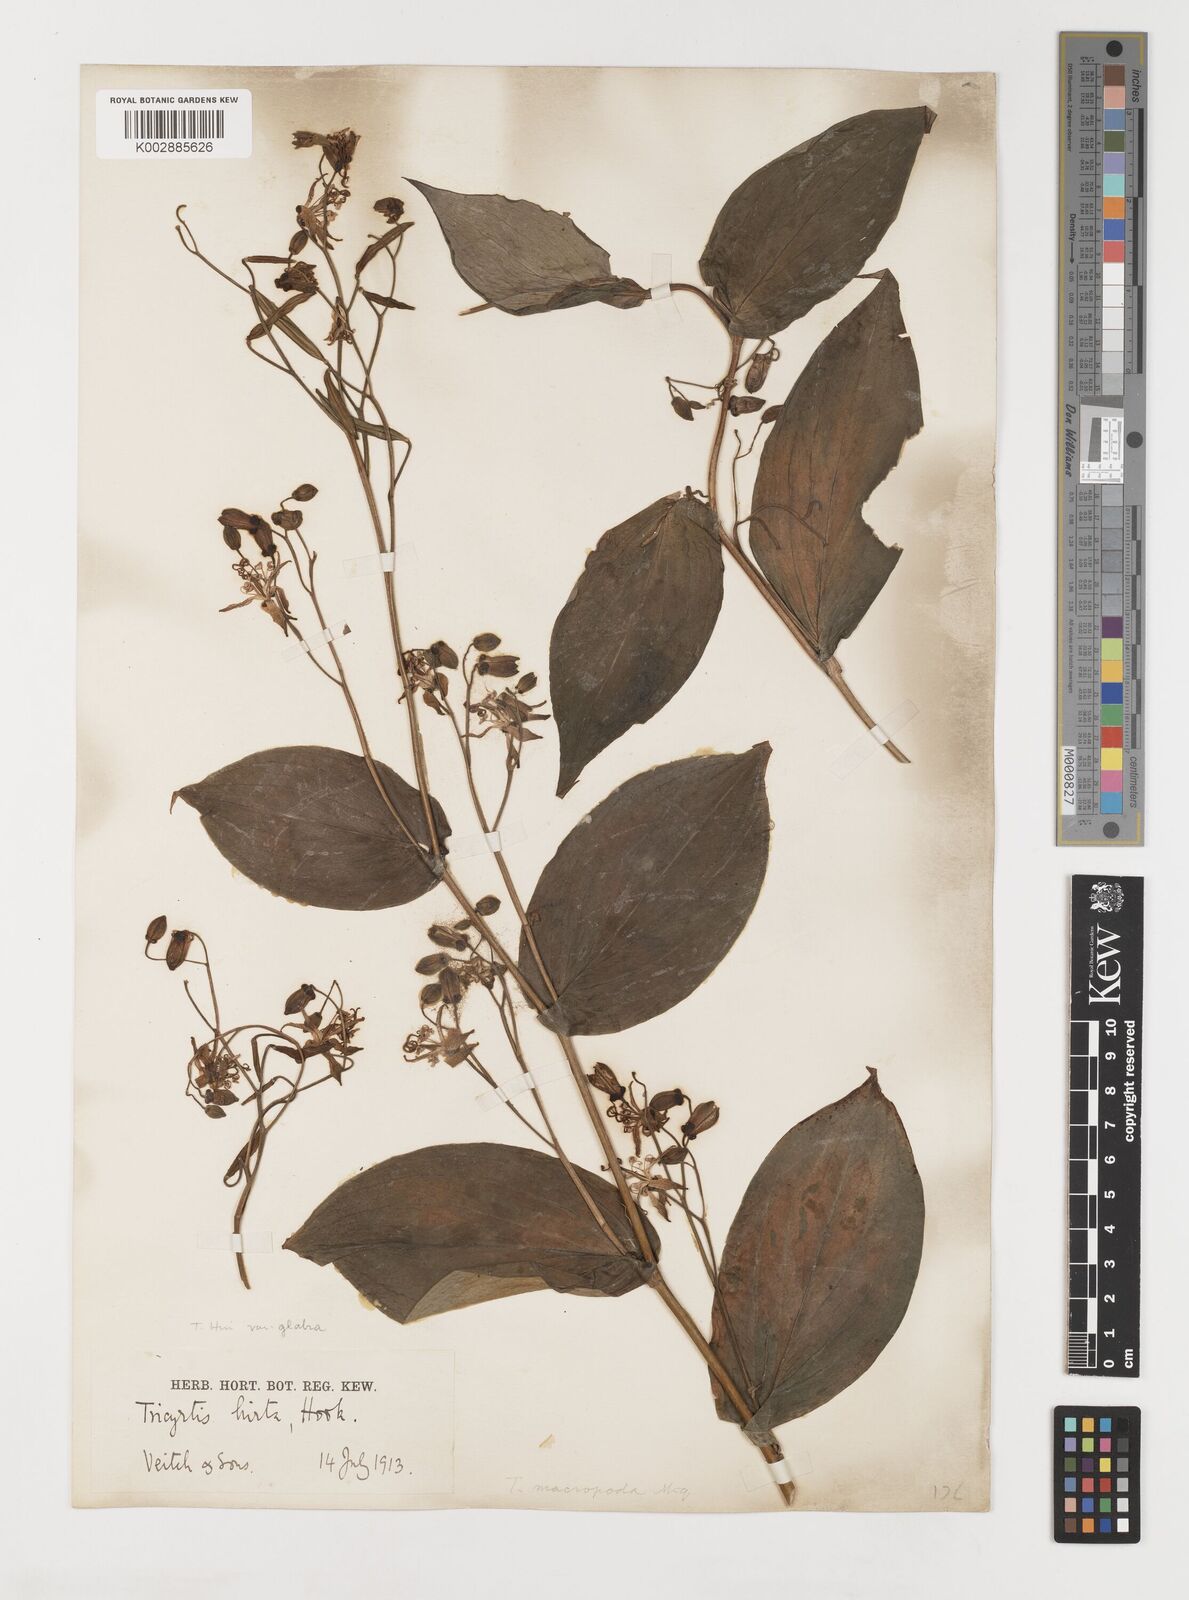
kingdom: Plantae
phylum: Tracheophyta
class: Liliopsida
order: Liliales
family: Liliaceae
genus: Tricyrtis
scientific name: Tricyrtis latifolia
